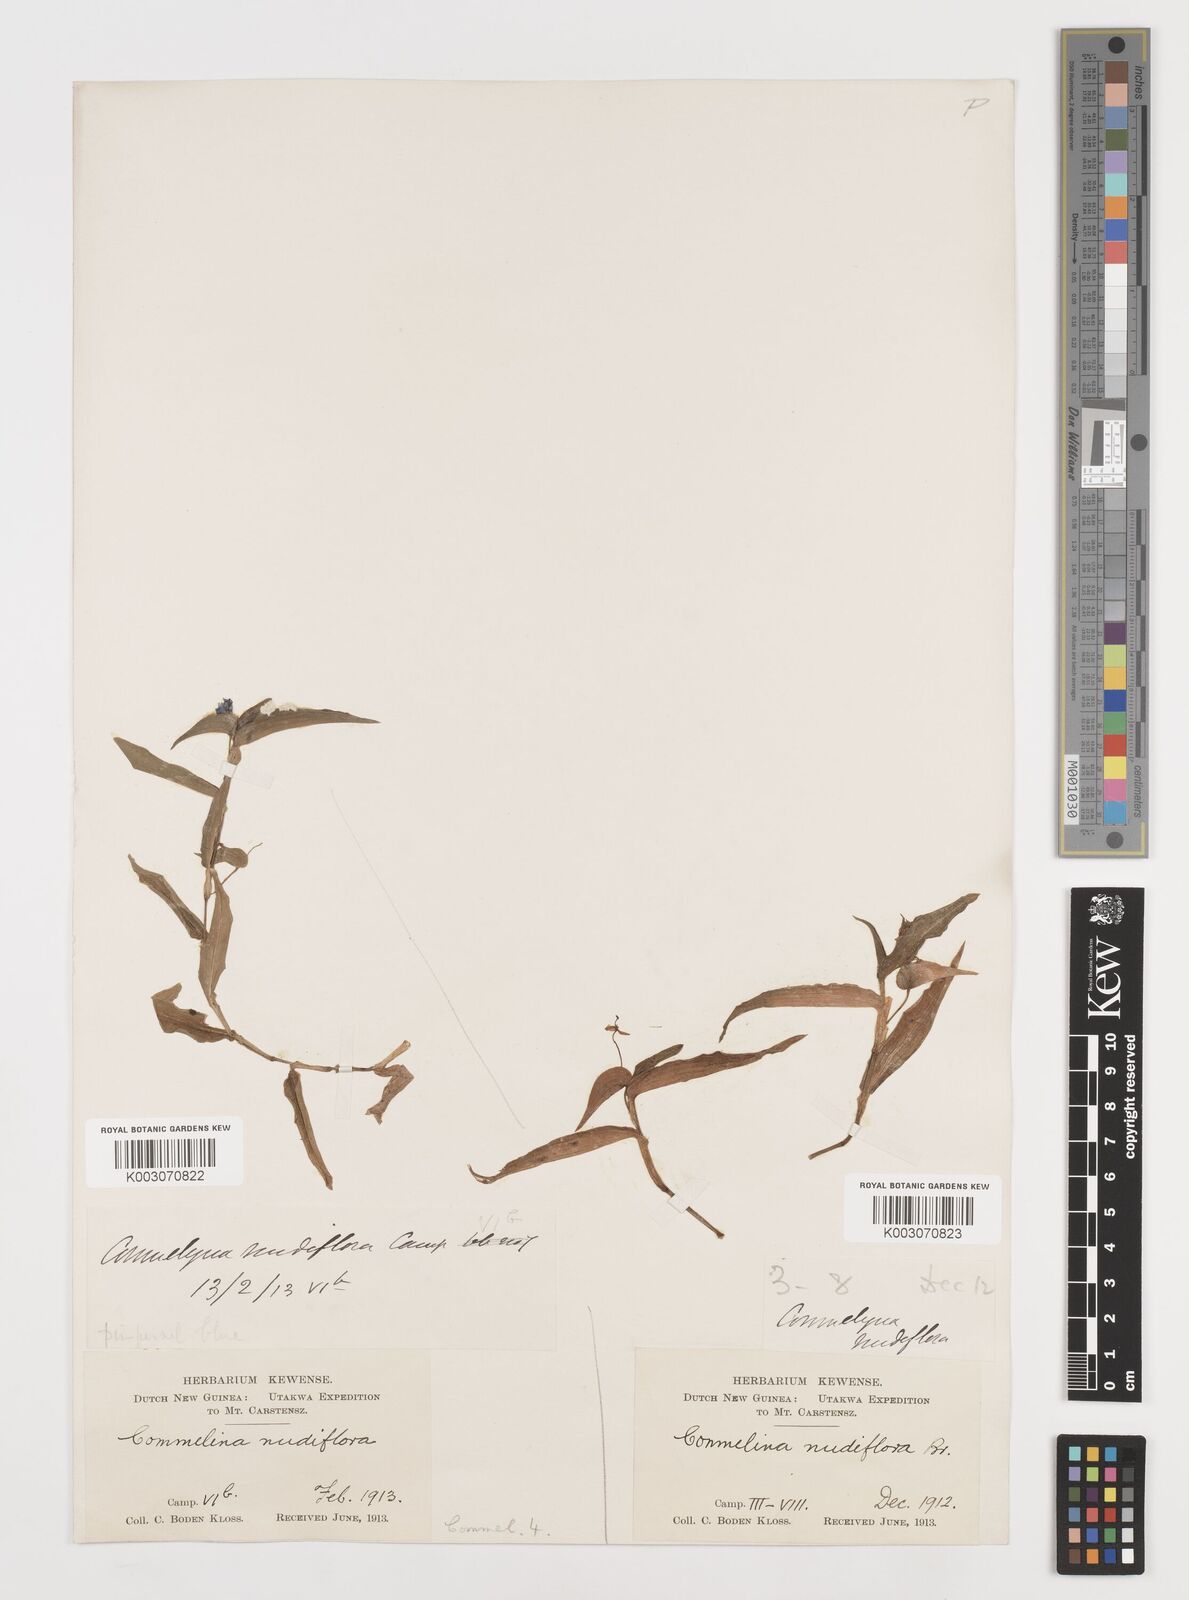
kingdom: Plantae
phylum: Tracheophyta
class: Liliopsida
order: Commelinales
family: Commelinaceae
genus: Murdannia
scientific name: Murdannia nudiflora
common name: Nakedstem dewflower
